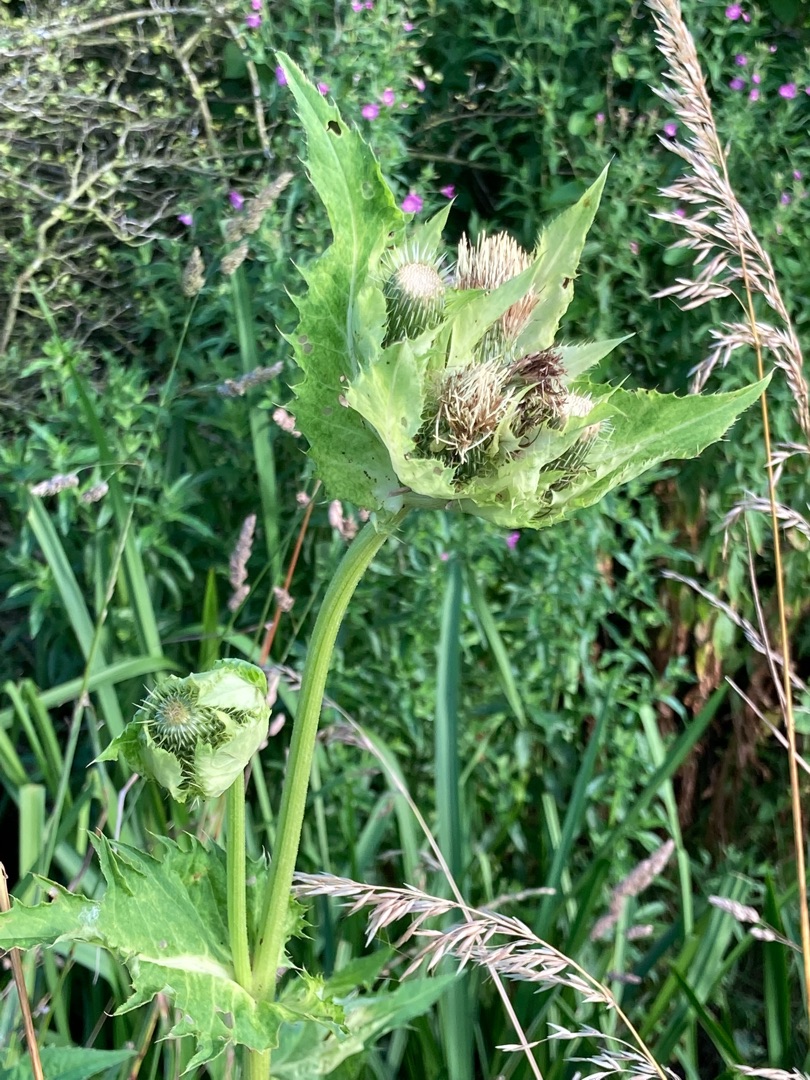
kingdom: Plantae
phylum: Tracheophyta
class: Magnoliopsida
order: Asterales
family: Asteraceae
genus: Cirsium
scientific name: Cirsium oleraceum
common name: Kål-tidsel
